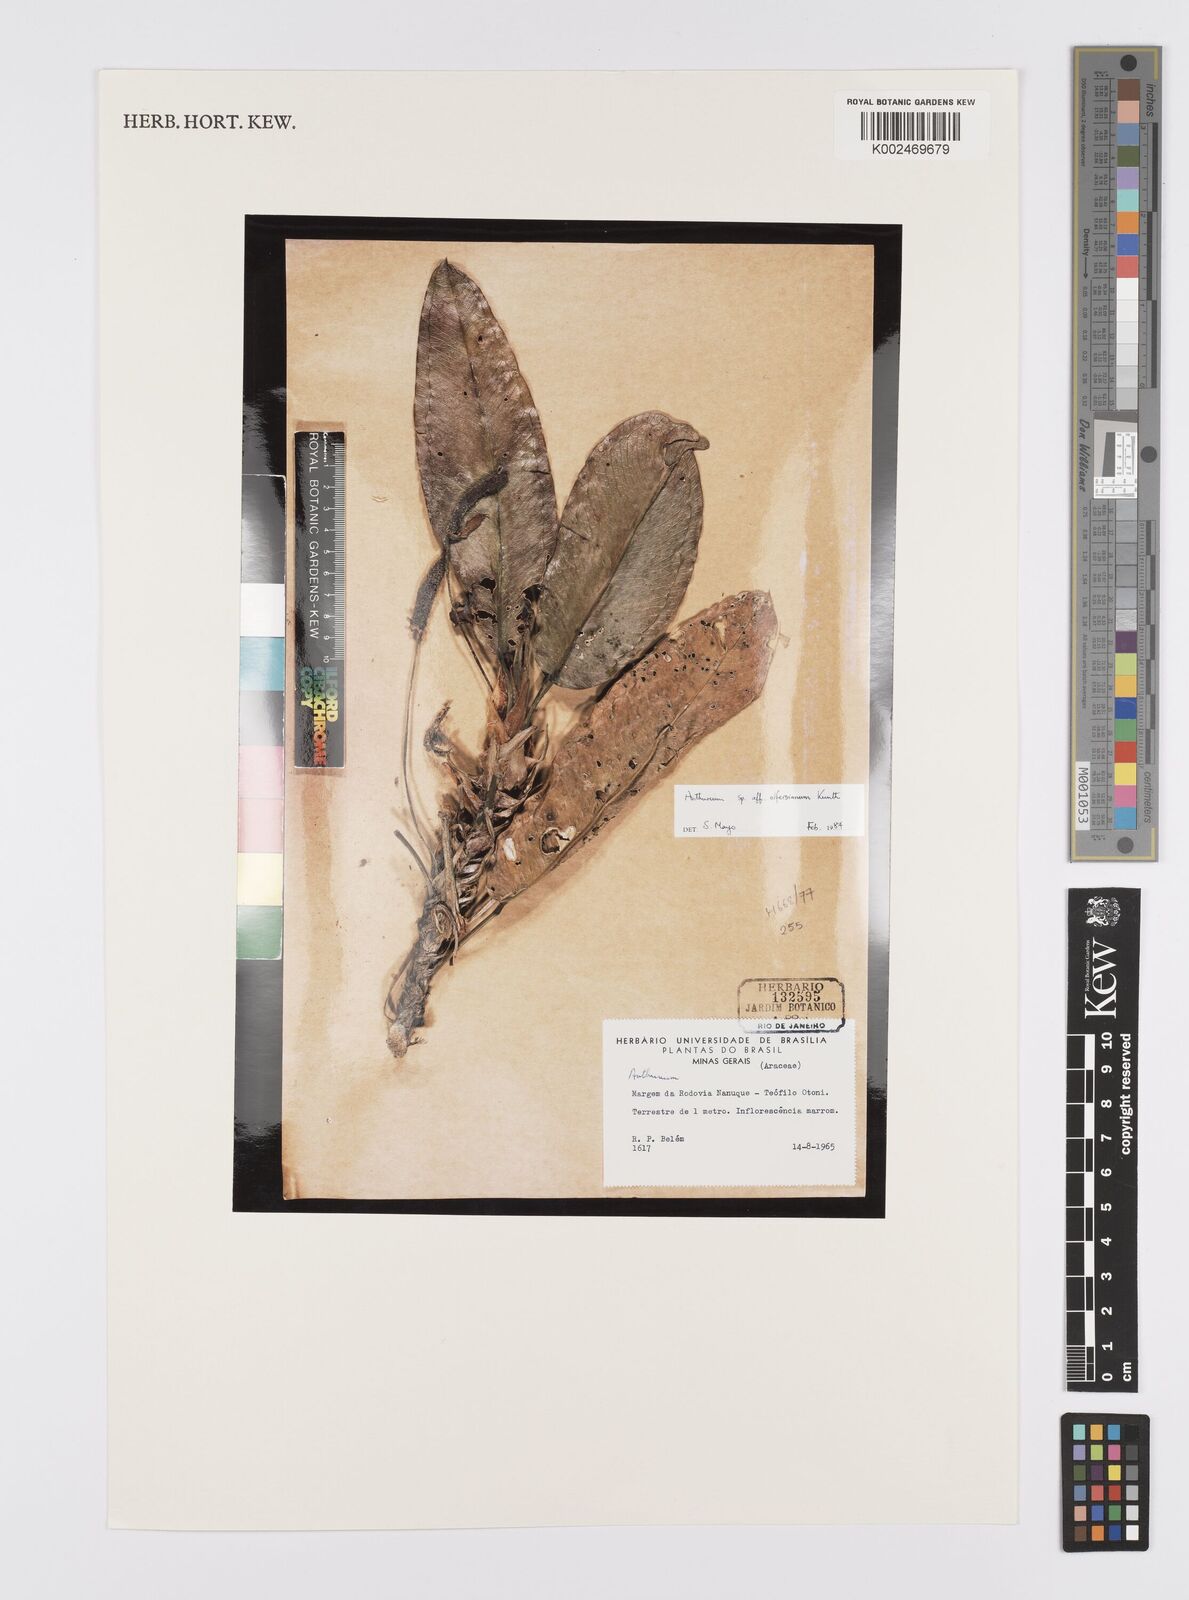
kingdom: Plantae
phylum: Tracheophyta
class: Liliopsida
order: Alismatales
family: Araceae
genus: Anthurium
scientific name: Anthurium
